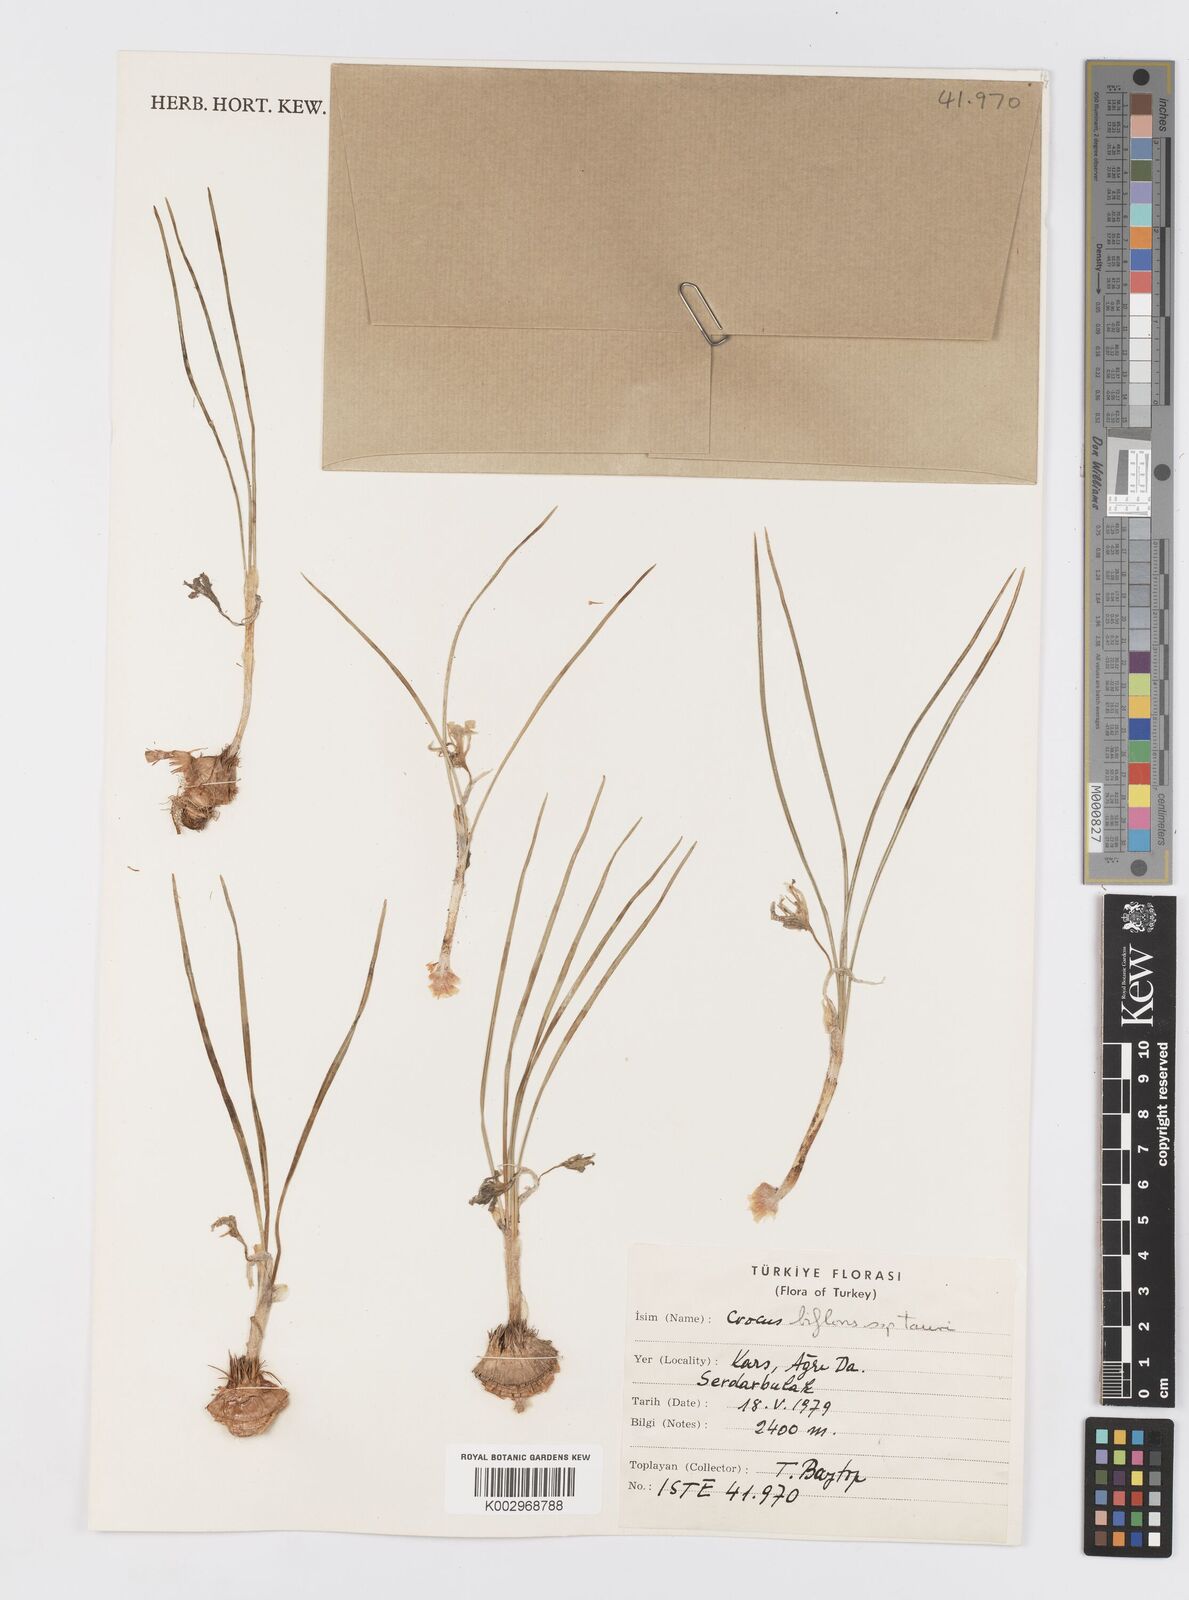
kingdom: Plantae
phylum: Tracheophyta
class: Liliopsida
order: Asparagales
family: Iridaceae
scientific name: Iridaceae
